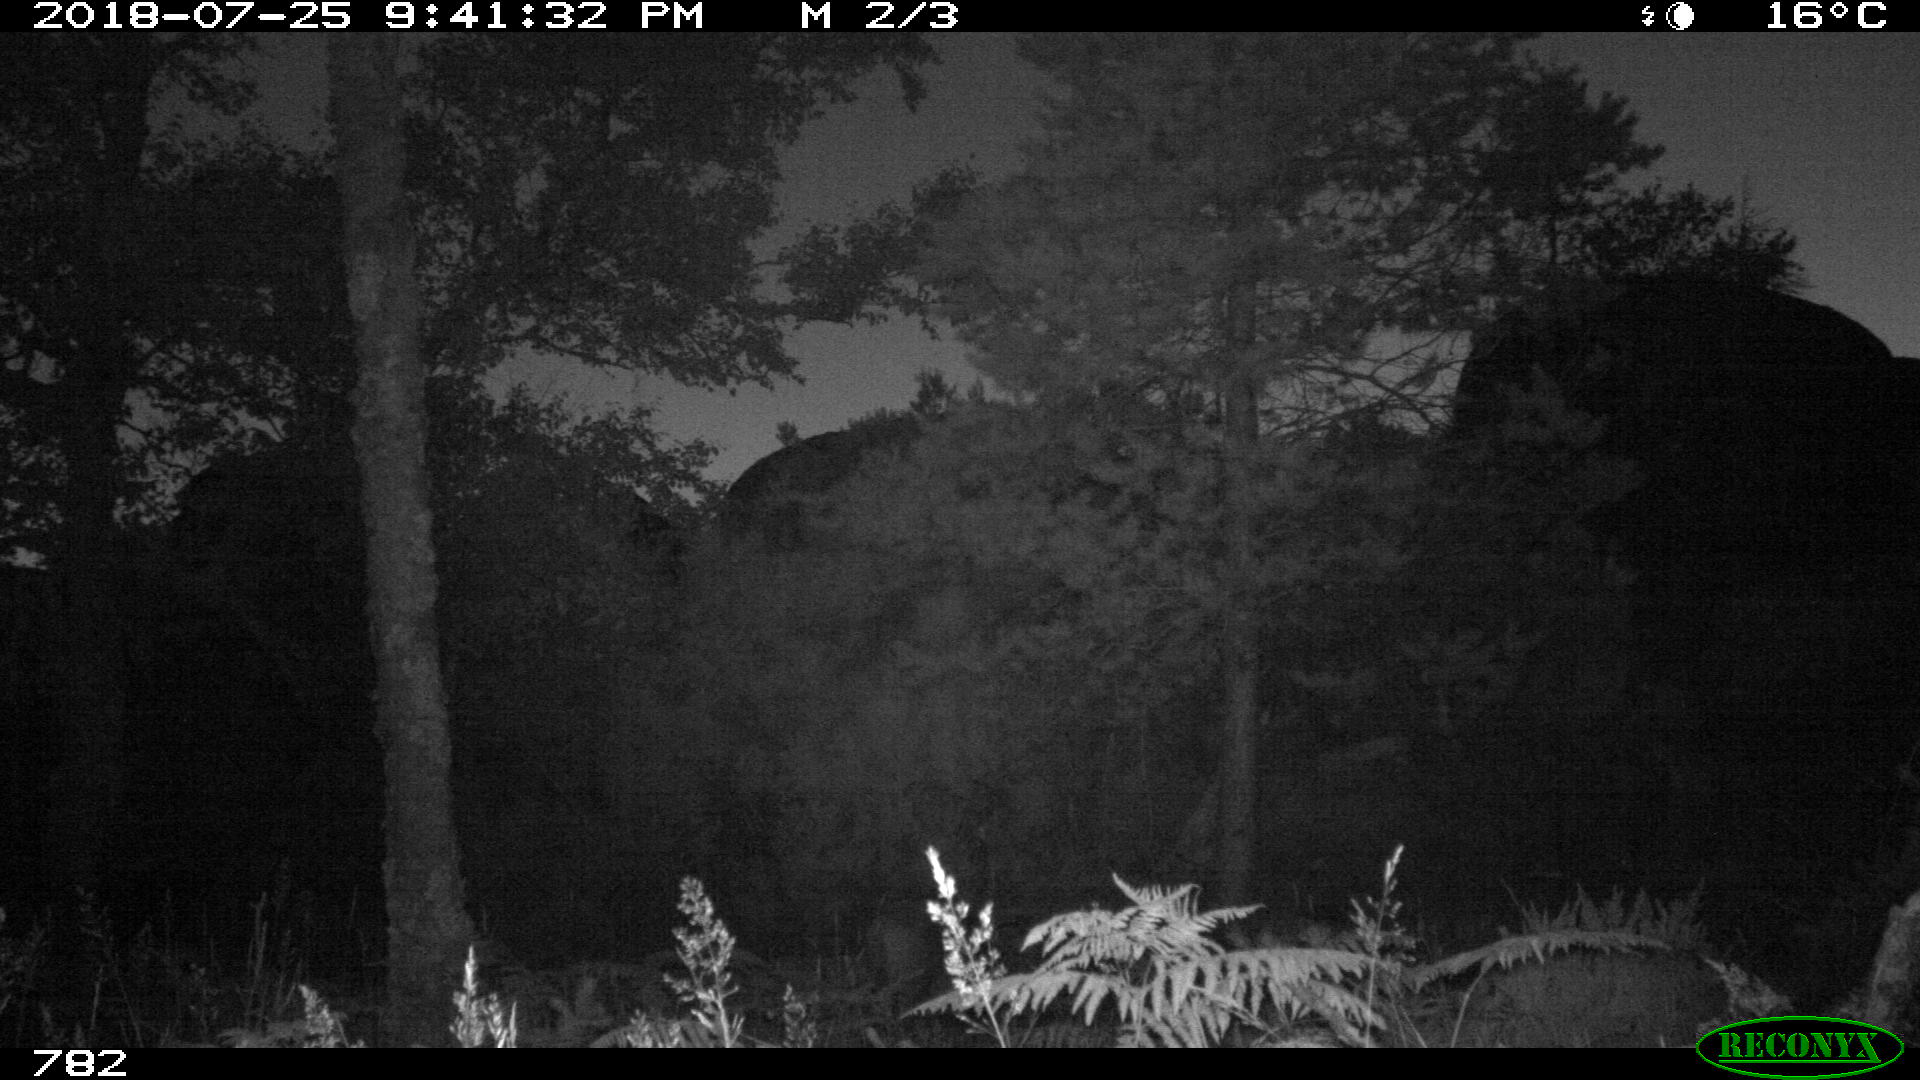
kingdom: Animalia
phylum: Chordata
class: Mammalia
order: Artiodactyla
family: Suidae
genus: Sus
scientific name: Sus scrofa
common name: Wild boar
